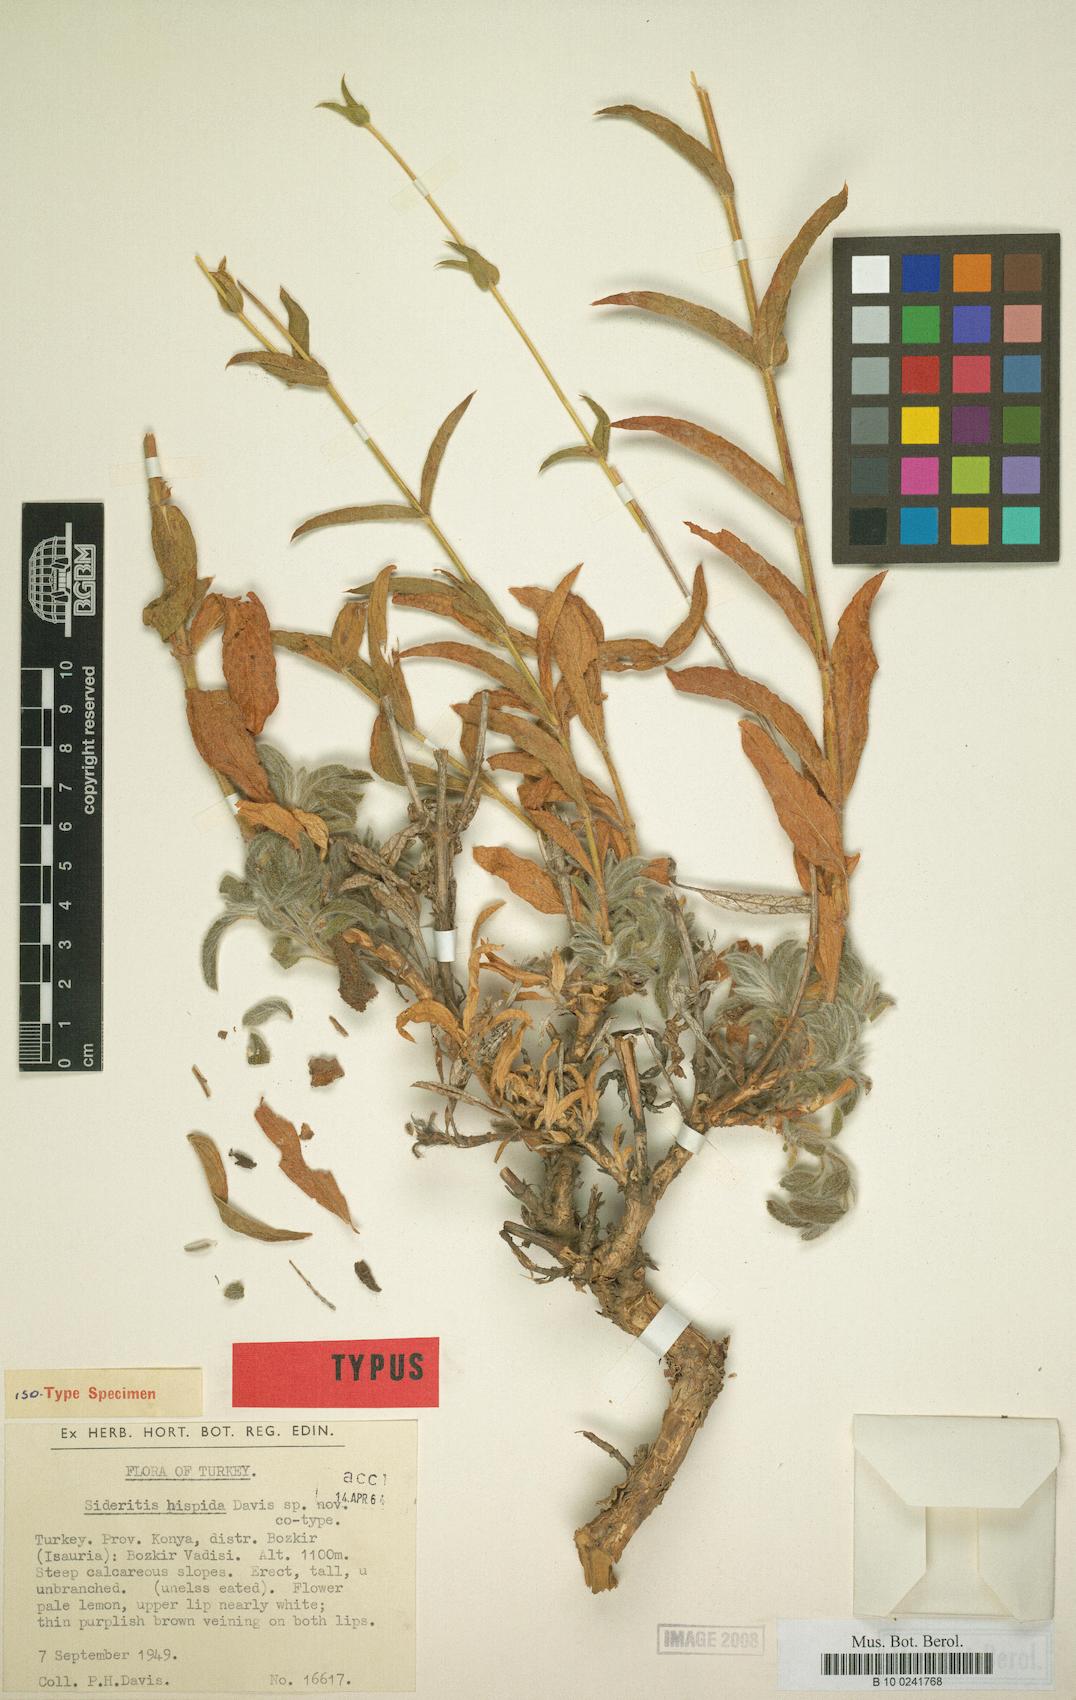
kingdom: Plantae
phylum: Tracheophyta
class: Magnoliopsida
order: Lamiales
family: Lamiaceae
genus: Sideritis
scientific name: Sideritis hispida
